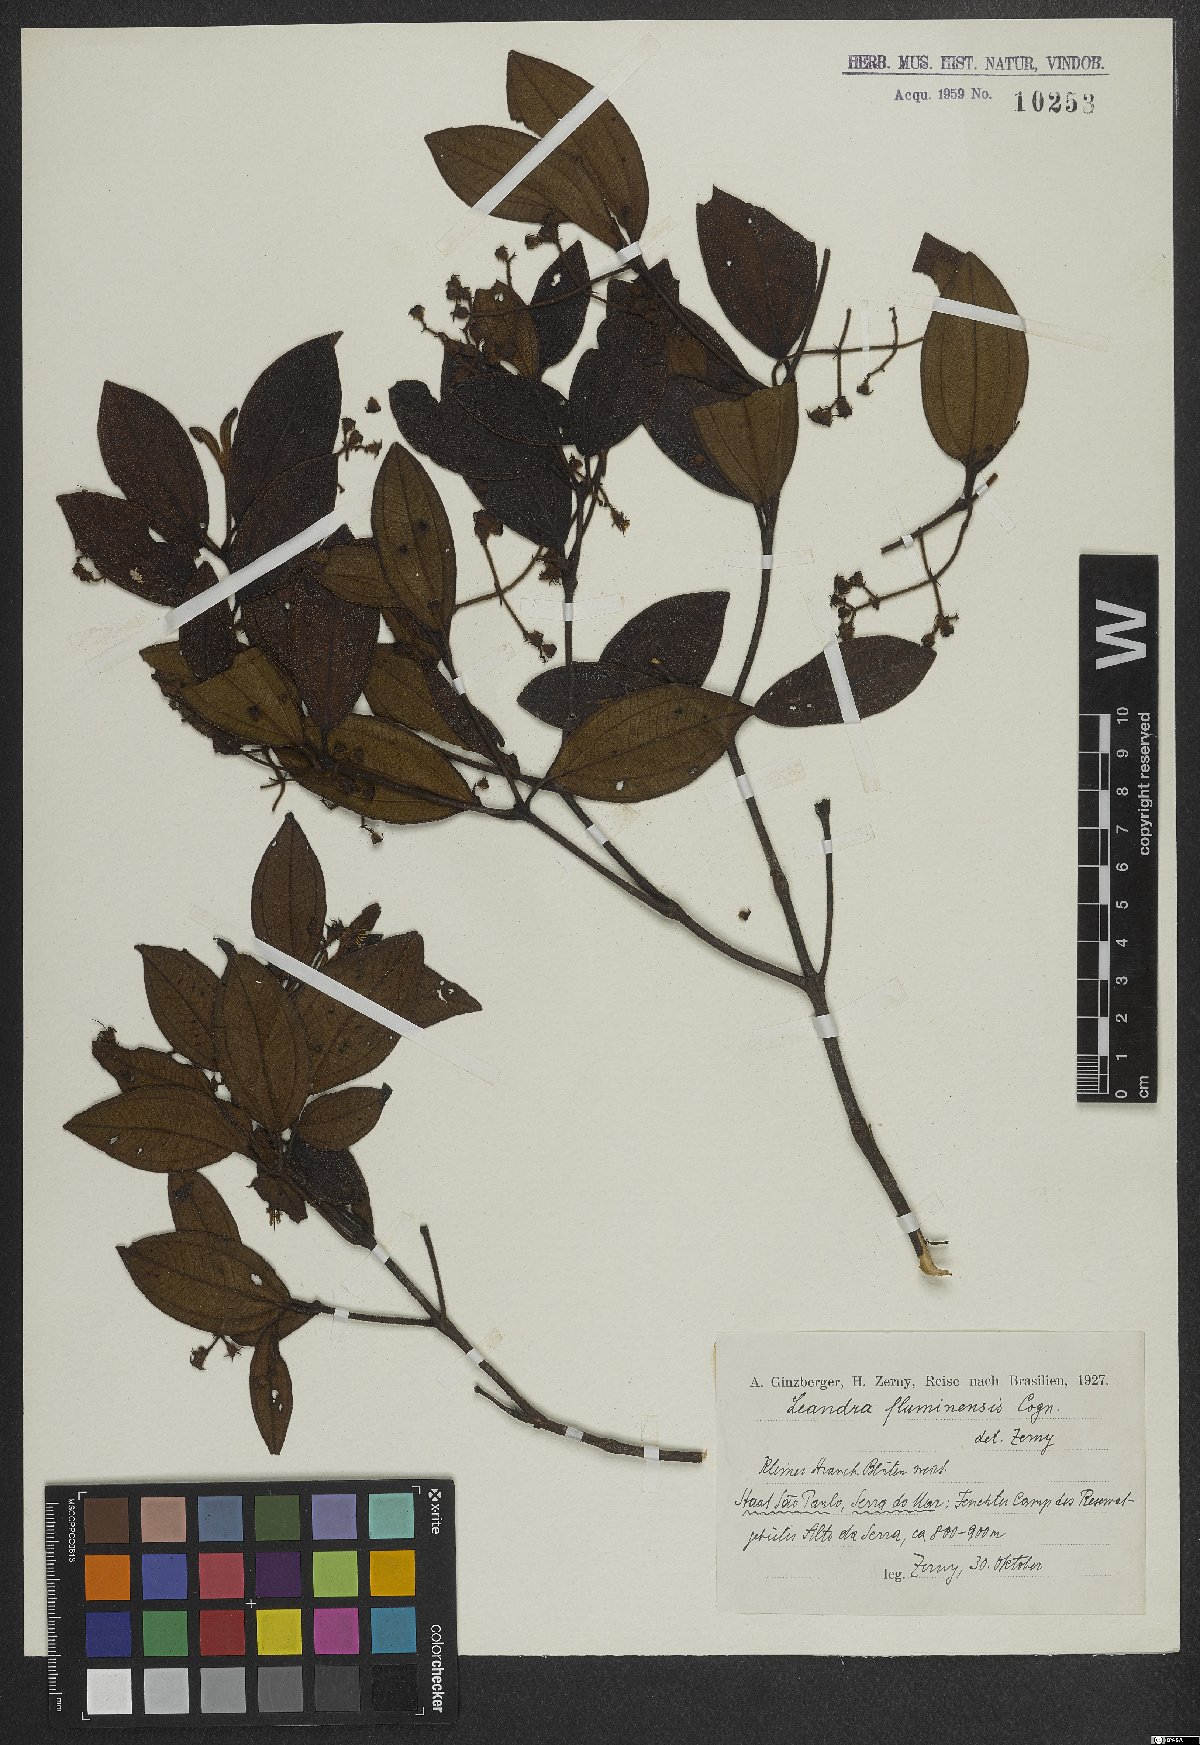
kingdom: Plantae
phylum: Tracheophyta
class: Magnoliopsida
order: Myrtales
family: Melastomataceae
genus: Miconia
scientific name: Miconia leafluminensis
